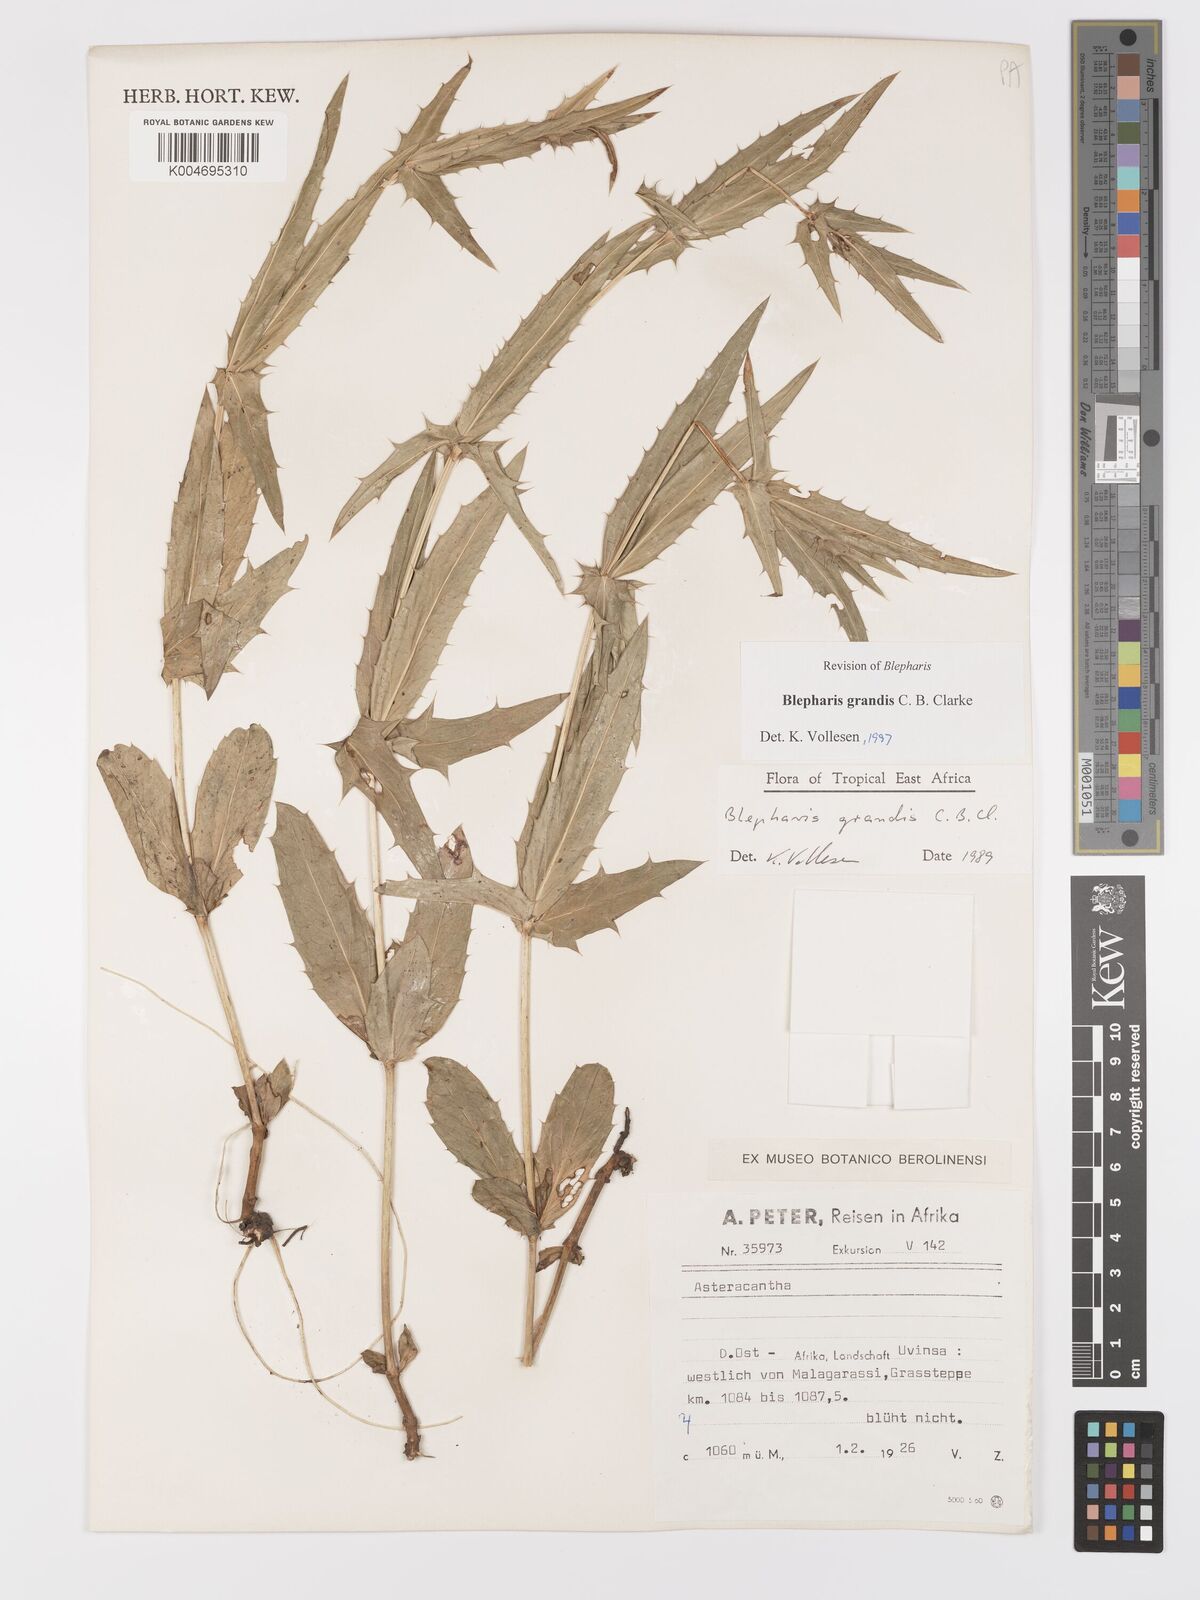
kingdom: Plantae
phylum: Tracheophyta
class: Magnoliopsida
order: Lamiales
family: Acanthaceae
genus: Blepharis
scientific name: Blepharis grandis
